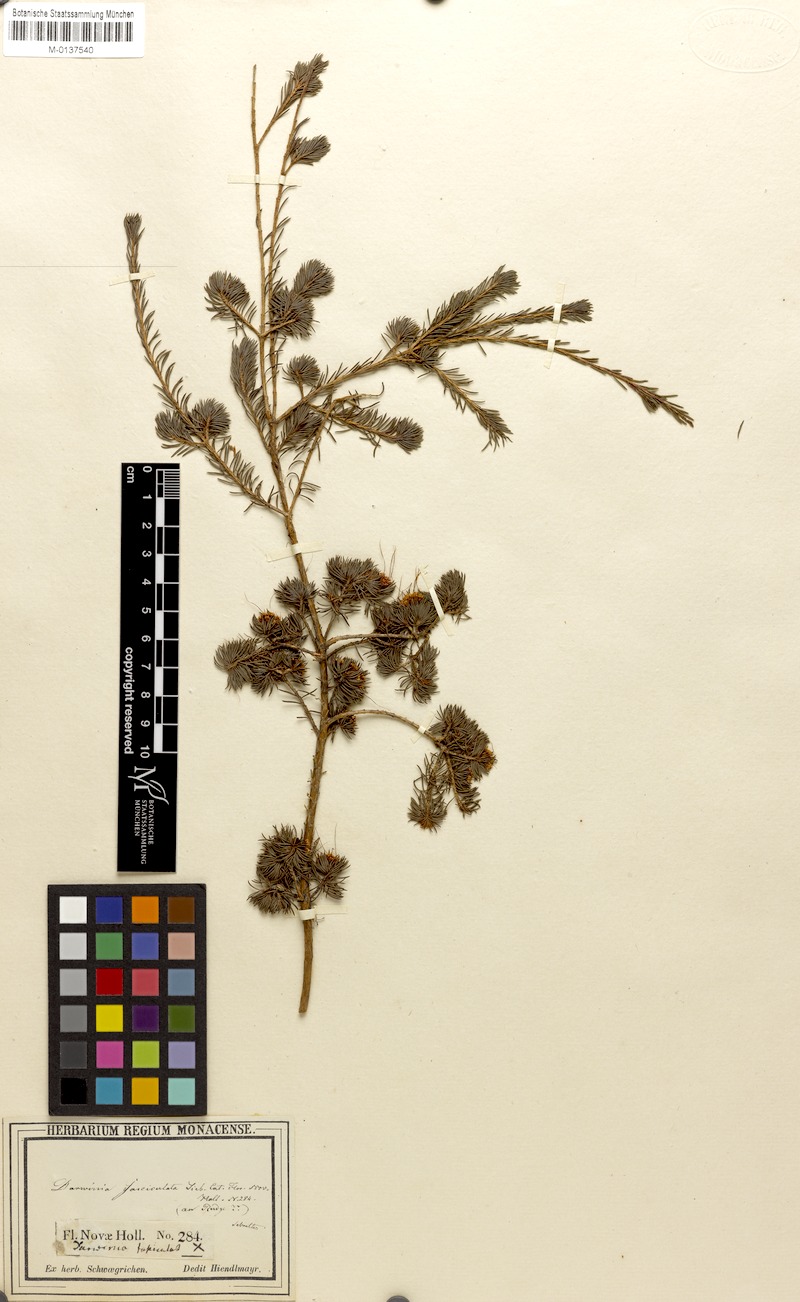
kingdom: Plantae
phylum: Tracheophyta
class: Magnoliopsida
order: Myrtales
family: Myrtaceae
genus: Darwinia
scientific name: Darwinia fascicularis
